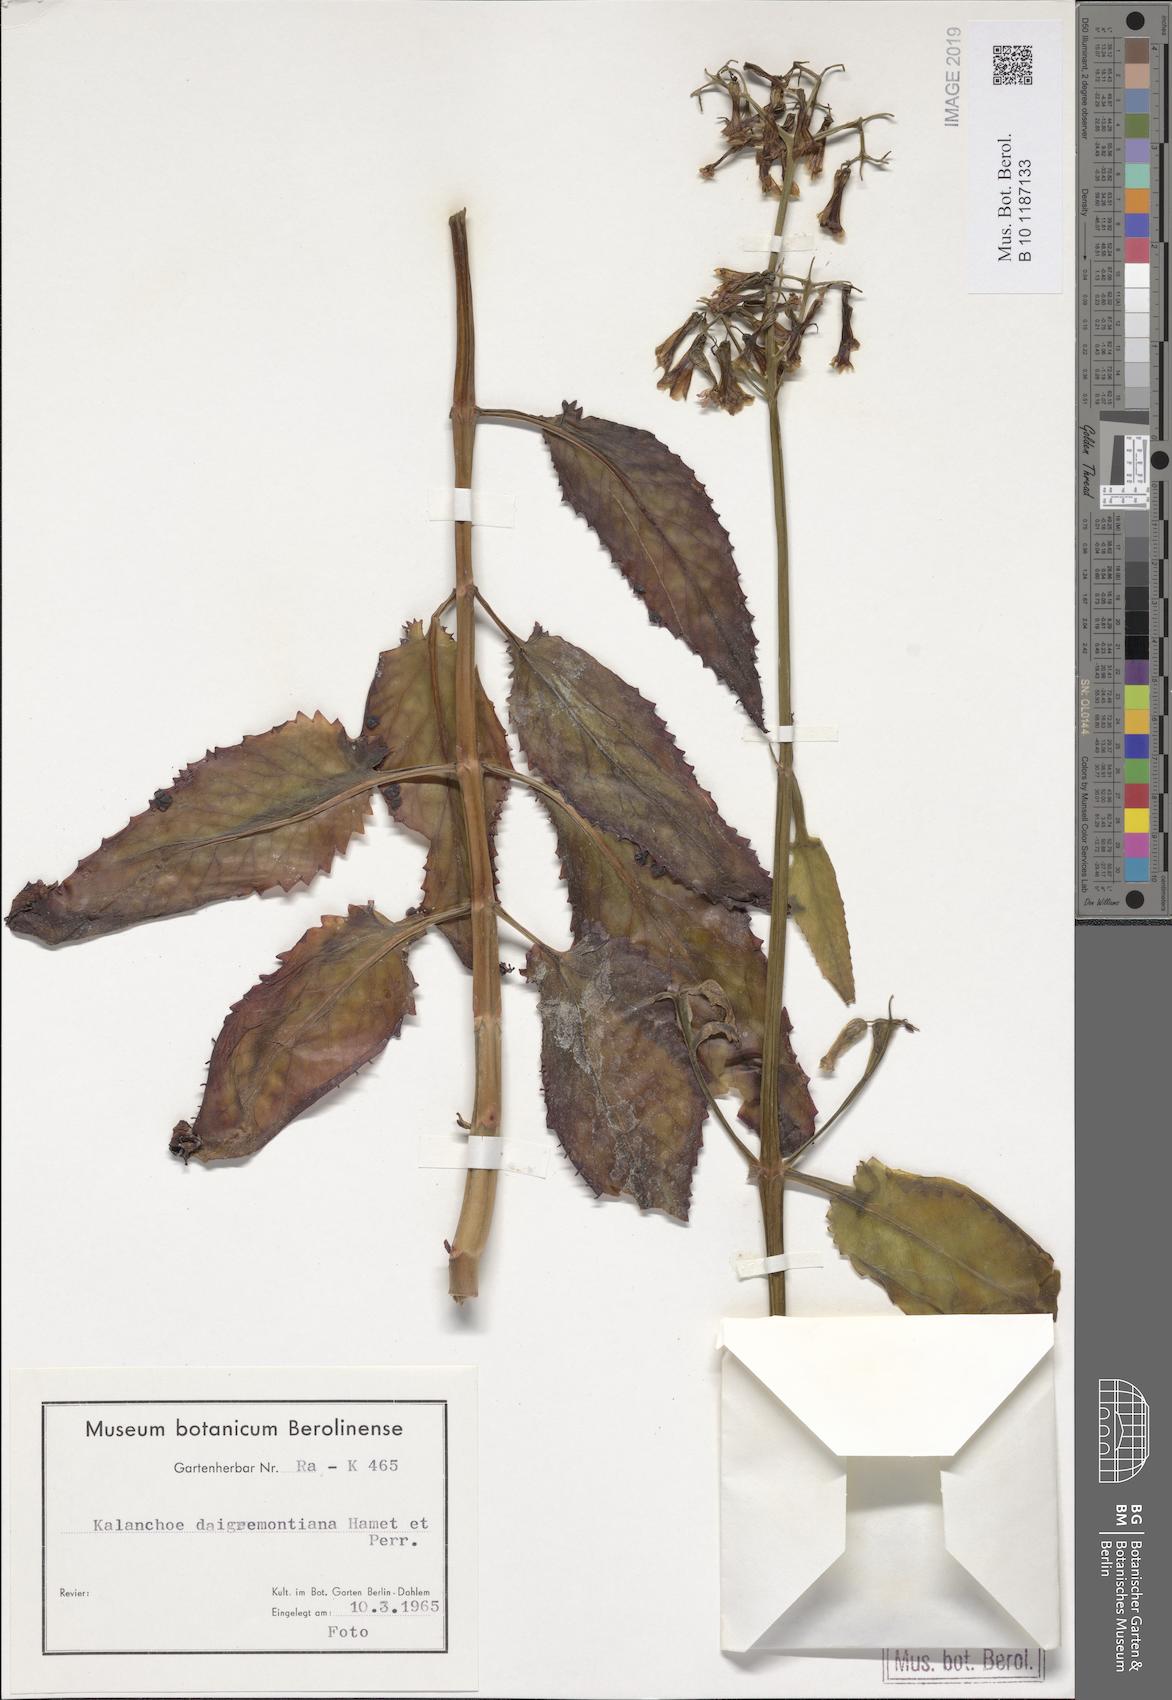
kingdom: Plantae
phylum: Tracheophyta
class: Magnoliopsida
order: Saxifragales
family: Crassulaceae
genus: Kalanchoe
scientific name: Kalanchoe daigremontiana
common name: Devil's backbone
